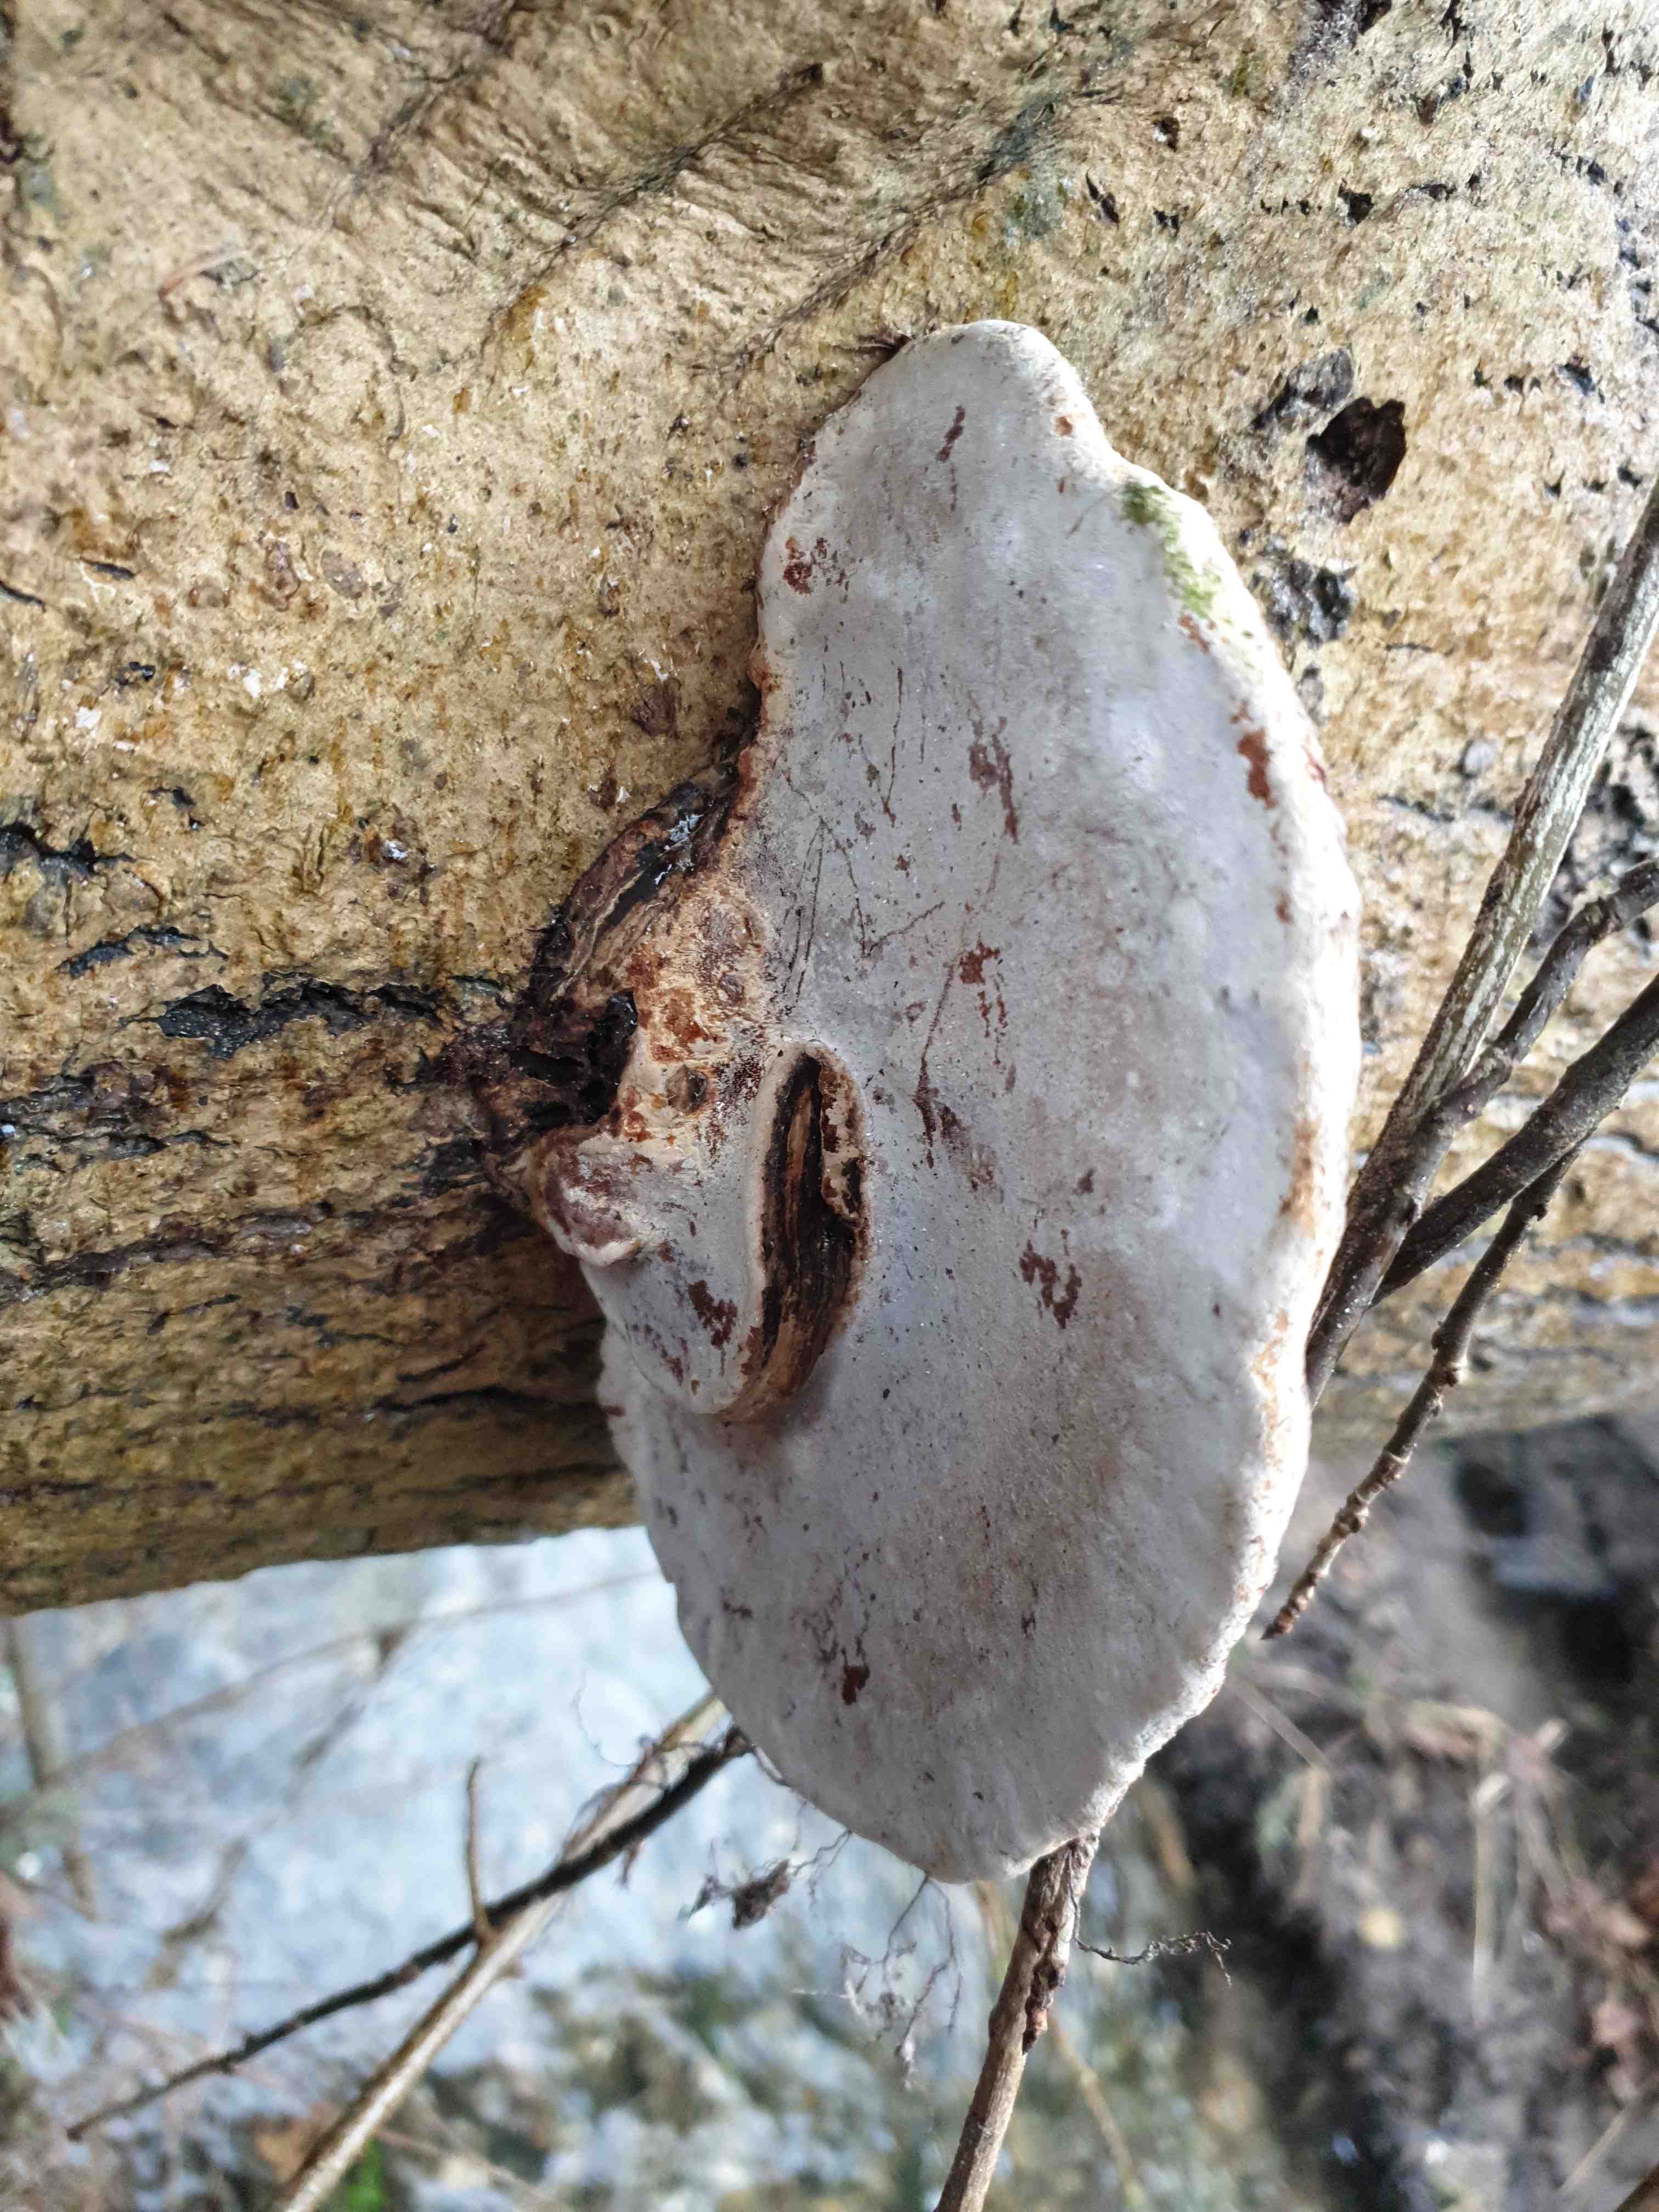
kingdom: Fungi
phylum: Basidiomycota
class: Agaricomycetes
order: Polyporales
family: Polyporaceae
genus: Ganoderma
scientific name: Ganoderma applanatum
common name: flad lakporesvamp
